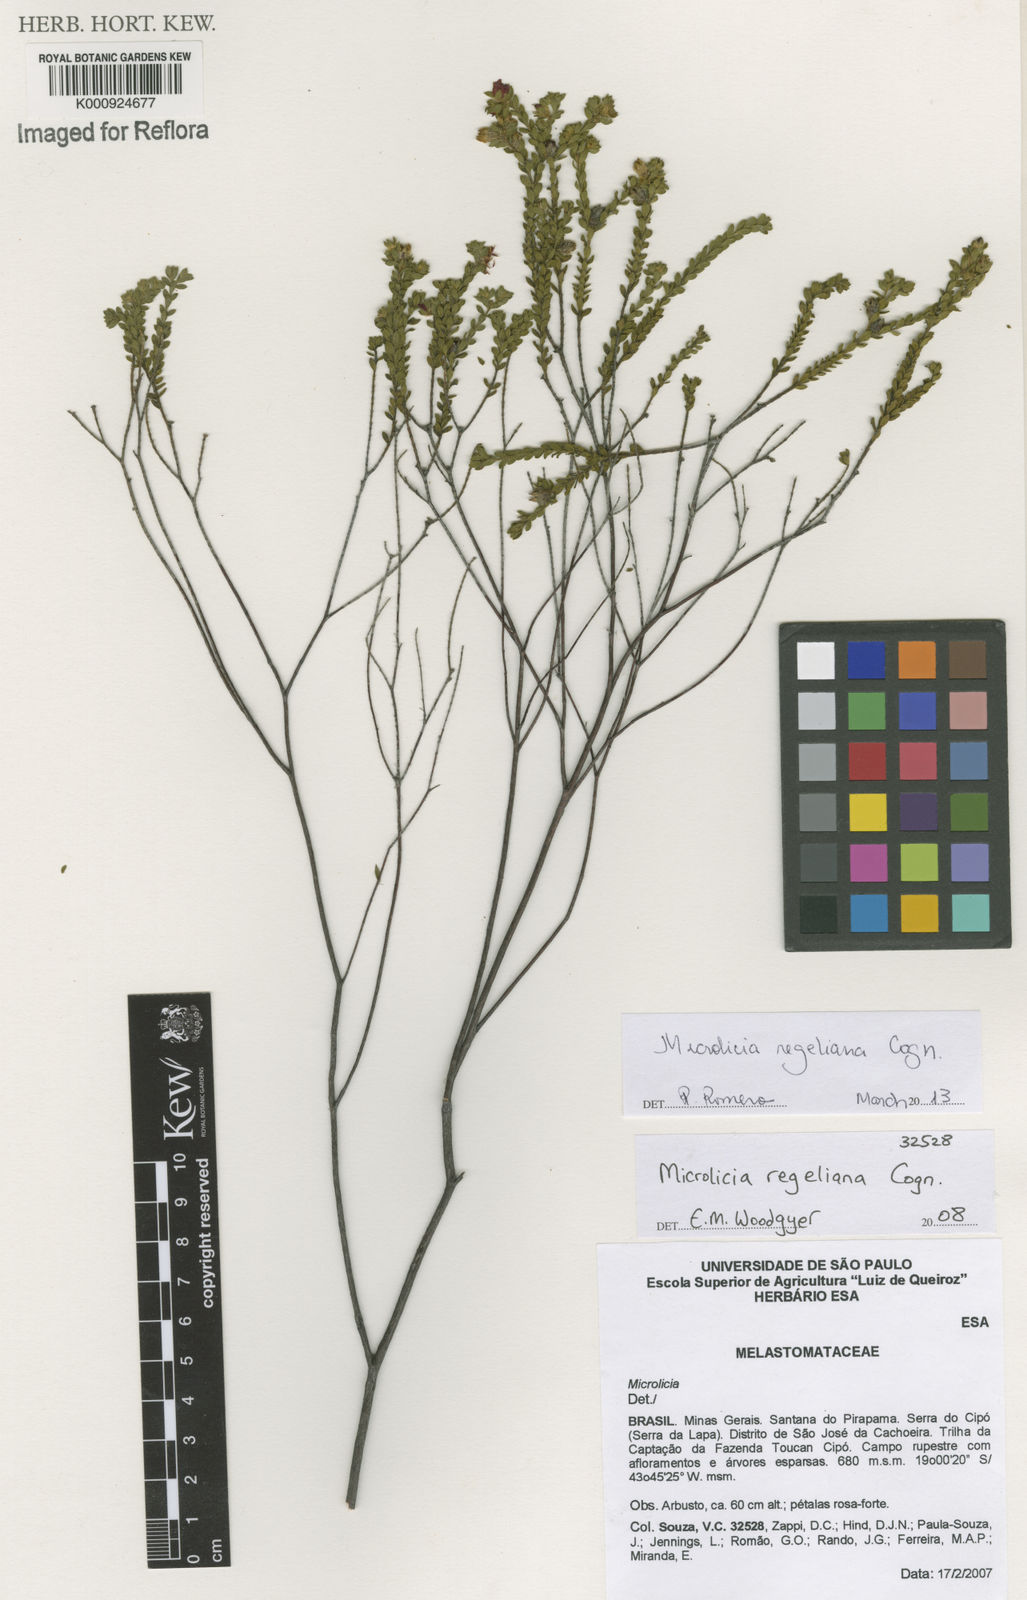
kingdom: Plantae
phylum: Tracheophyta
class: Magnoliopsida
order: Myrtales
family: Melastomataceae
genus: Microlicia
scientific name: Microlicia regeliana
